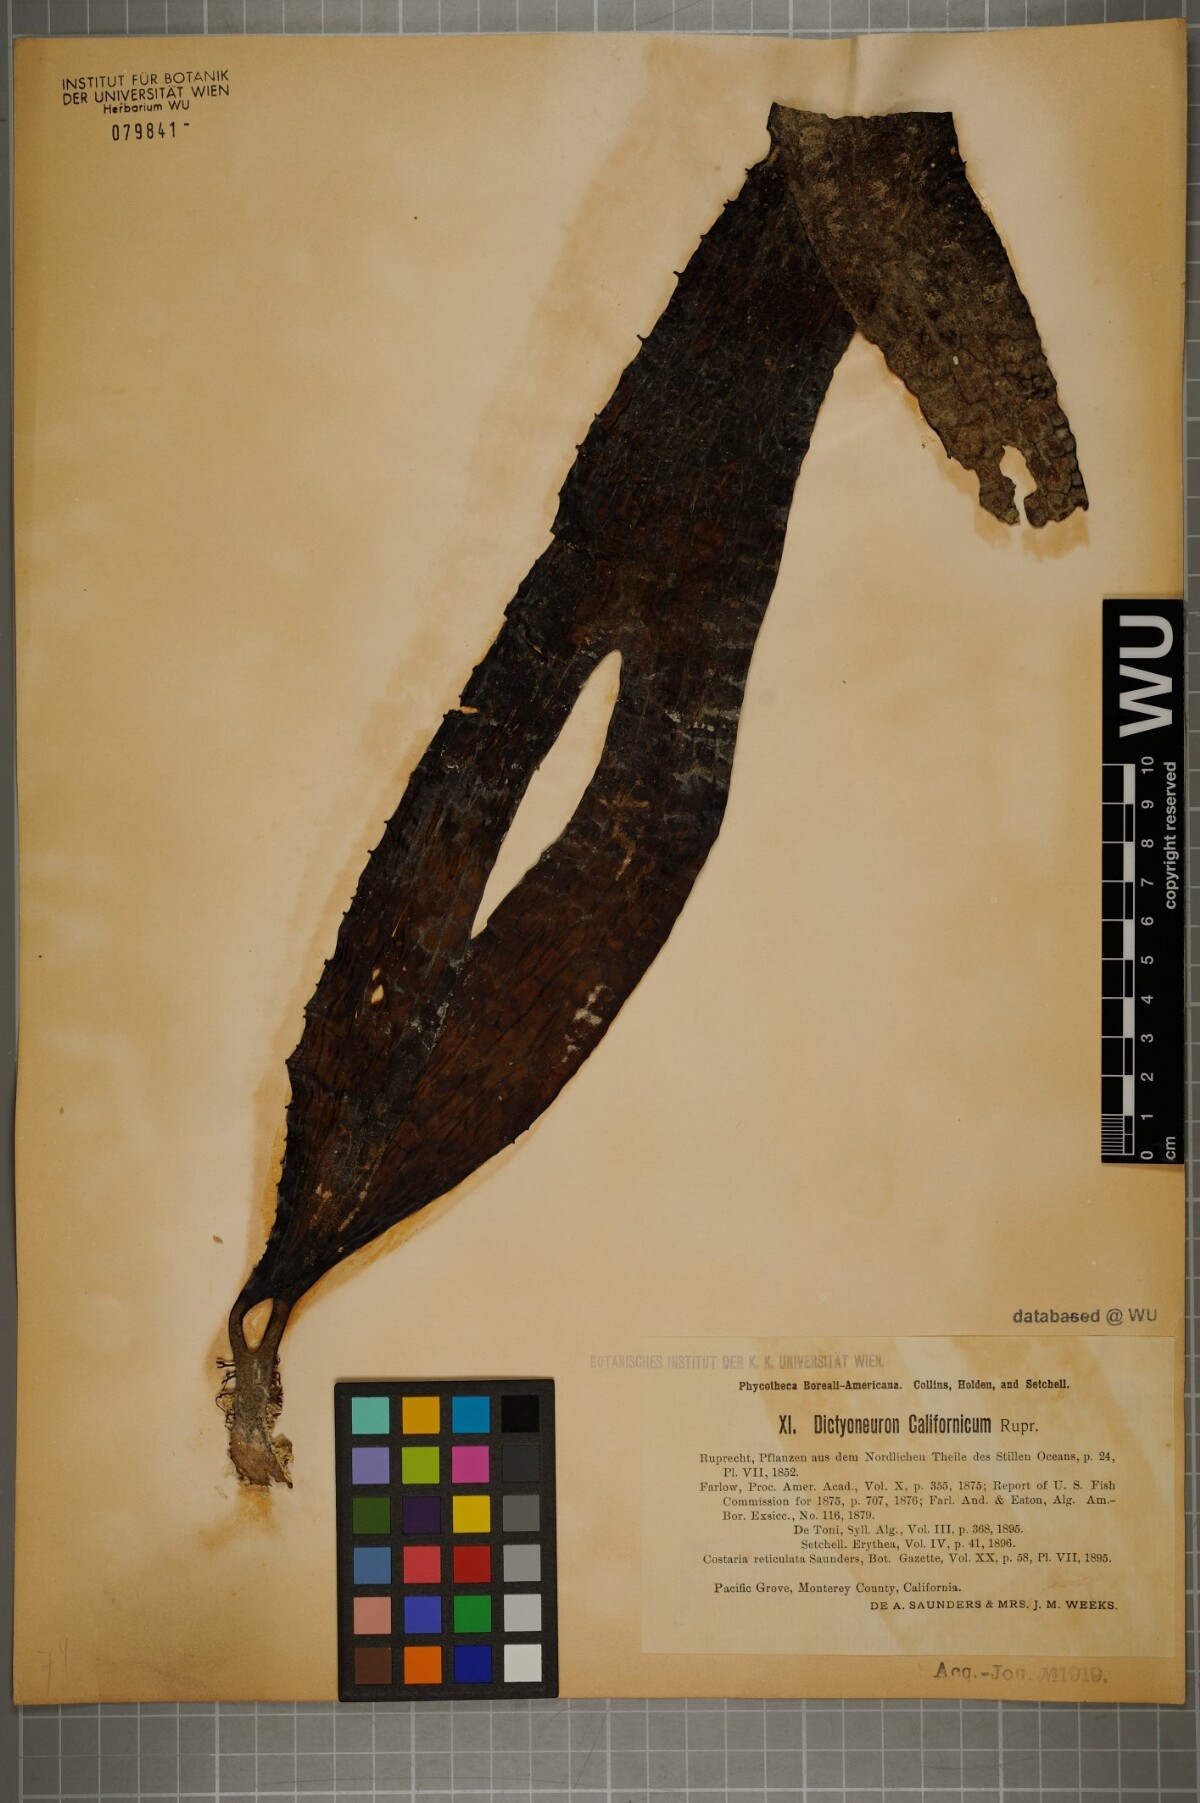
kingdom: Chromista
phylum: Ochrophyta
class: Phaeophyceae
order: Laminariales
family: Costariaceae
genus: Dictyoneurum
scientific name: Dictyoneurum californicum
